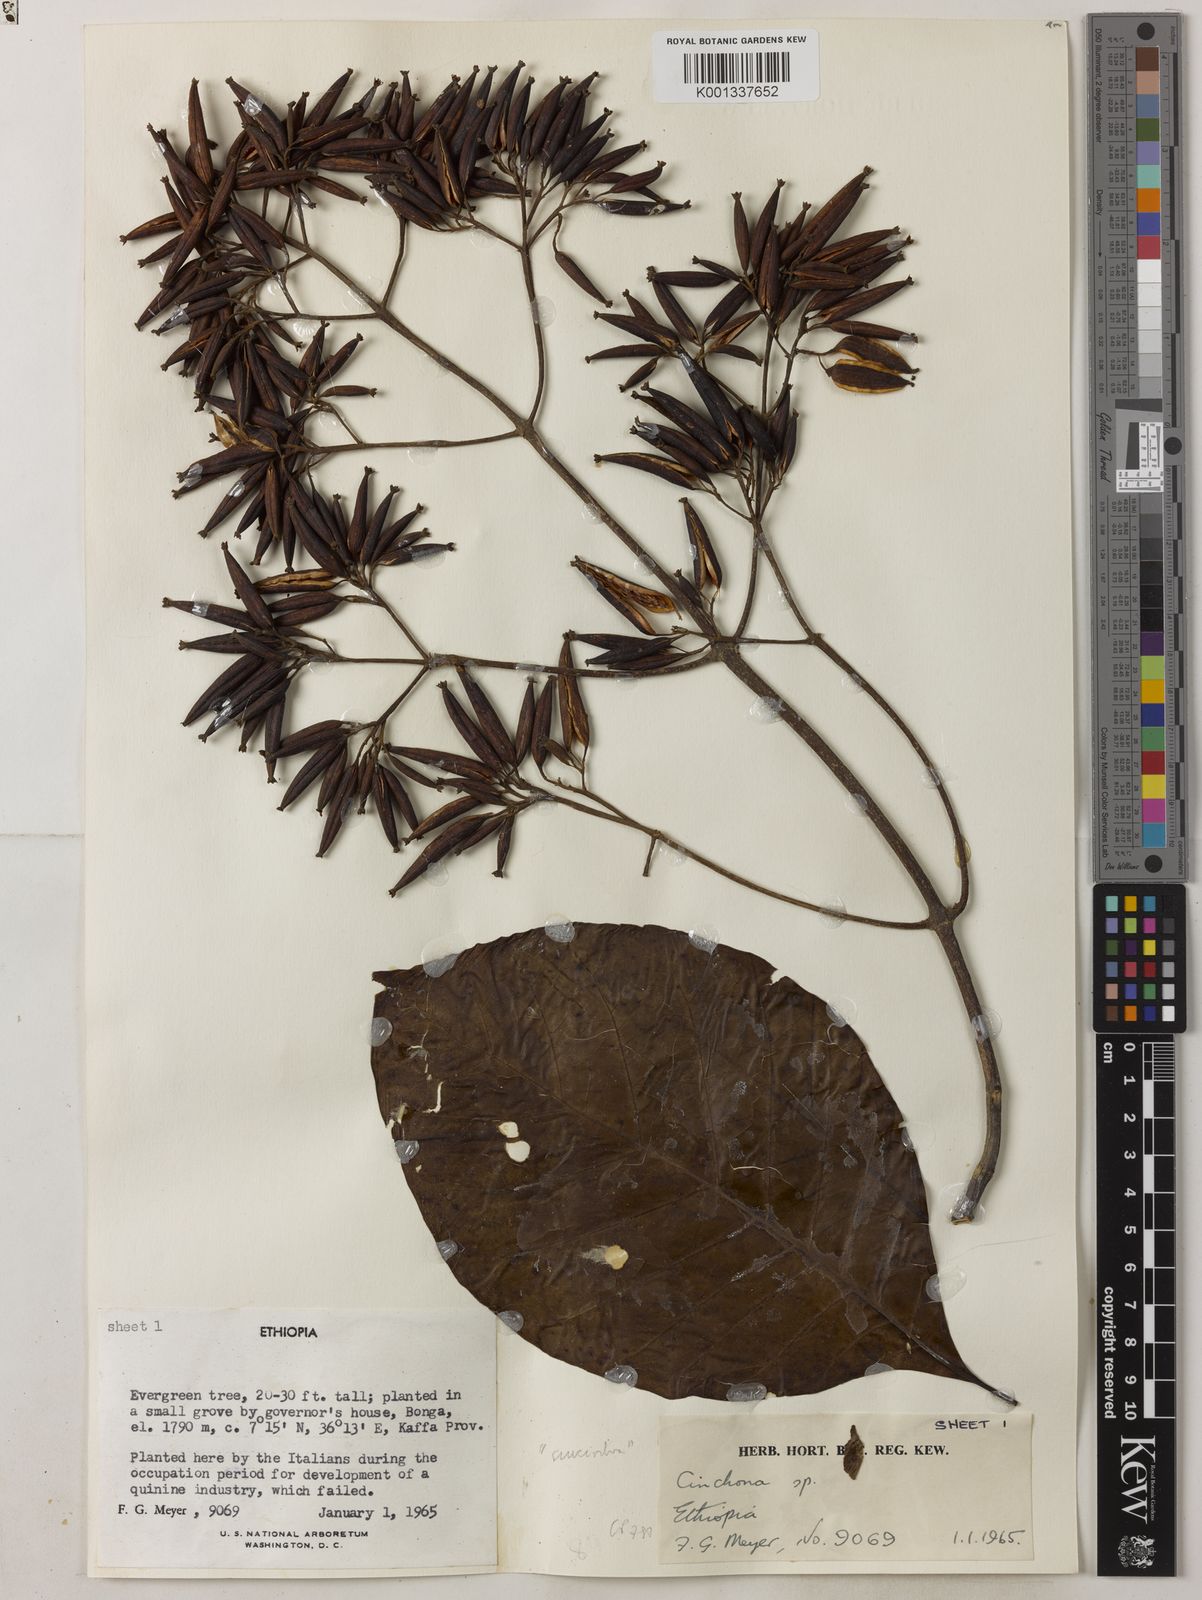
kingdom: Plantae
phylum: Tracheophyta
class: Magnoliopsida
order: Gentianales
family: Rubiaceae
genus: Cinchona
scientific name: Cinchona pubescens
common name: Quinine
